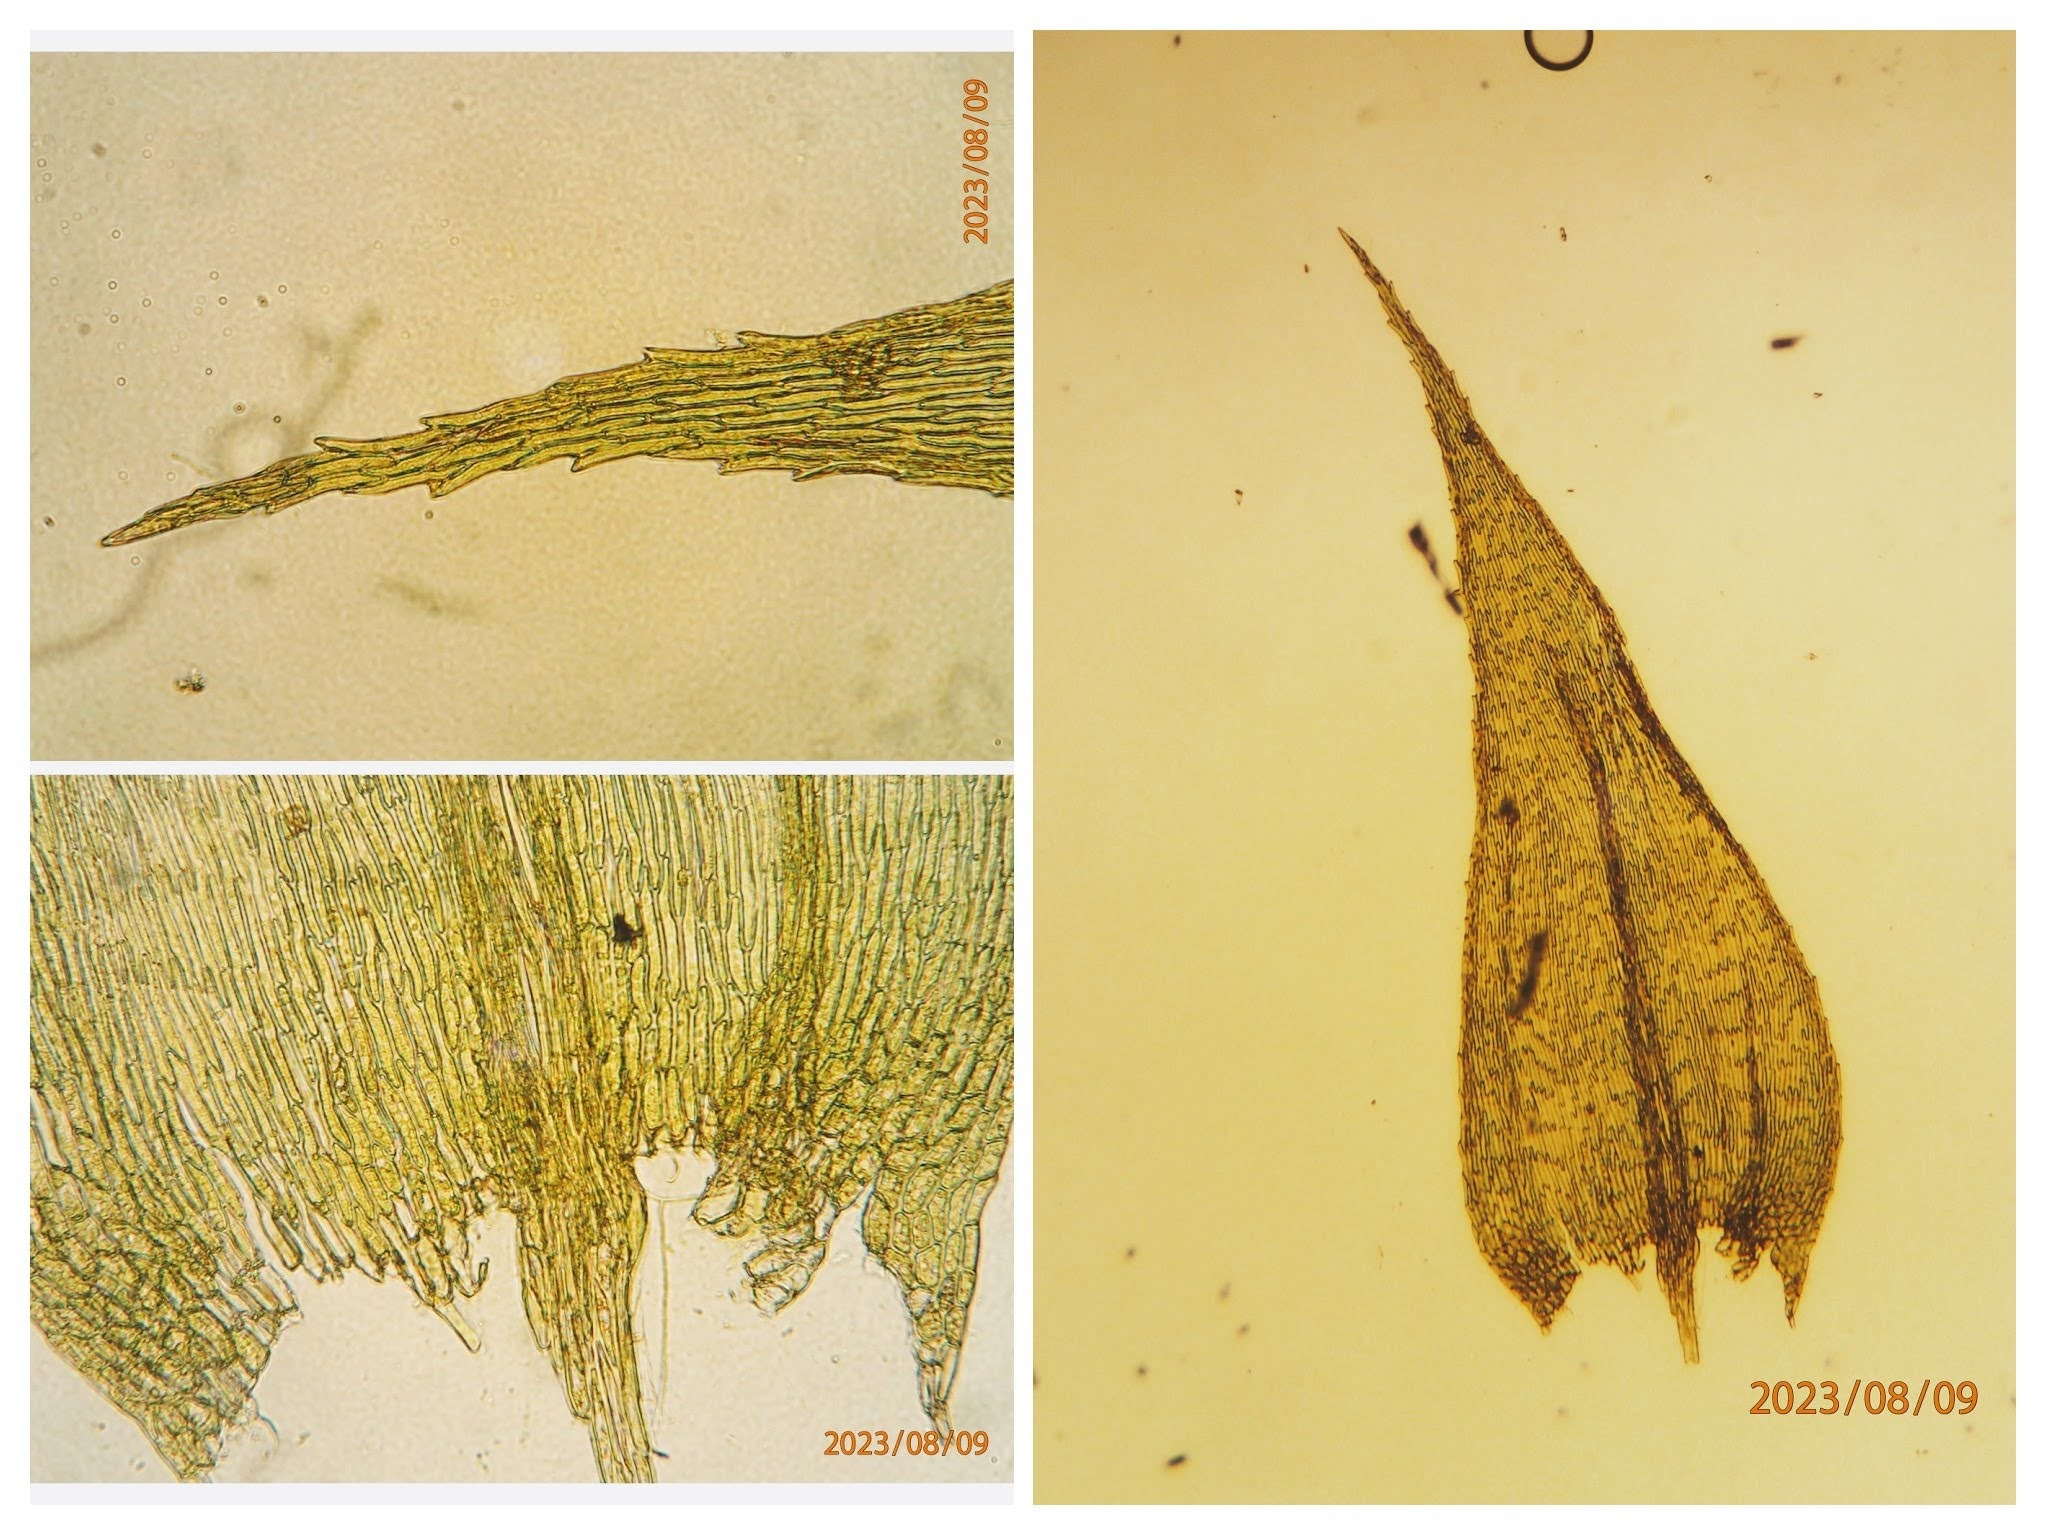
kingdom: Plantae
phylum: Bryophyta
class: Bryopsida
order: Hypnales
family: Brachytheciaceae
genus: Brachytheciastrum
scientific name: Brachytheciastrum velutinum
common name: Fløjls-kortkapsel
